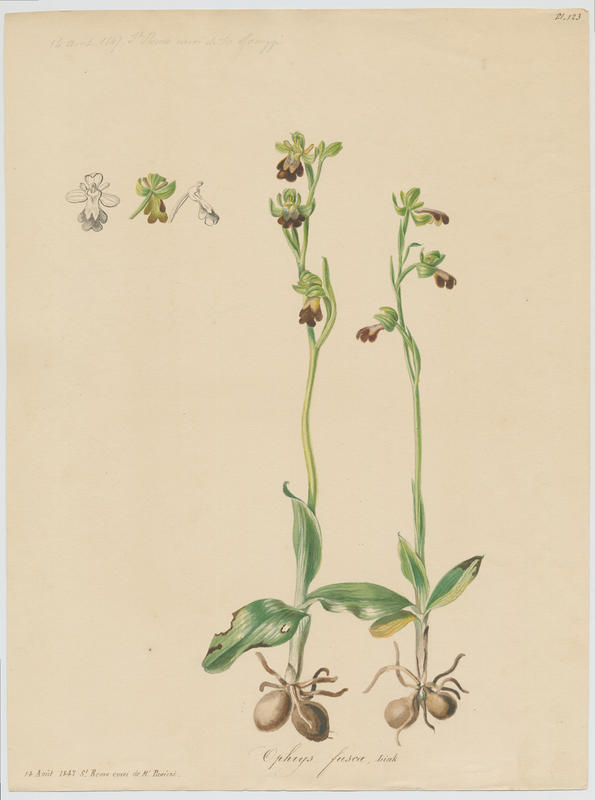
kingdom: Plantae
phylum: Tracheophyta
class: Liliopsida
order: Asparagales
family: Orchidaceae
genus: Ophrys
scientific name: Ophrys fusca
